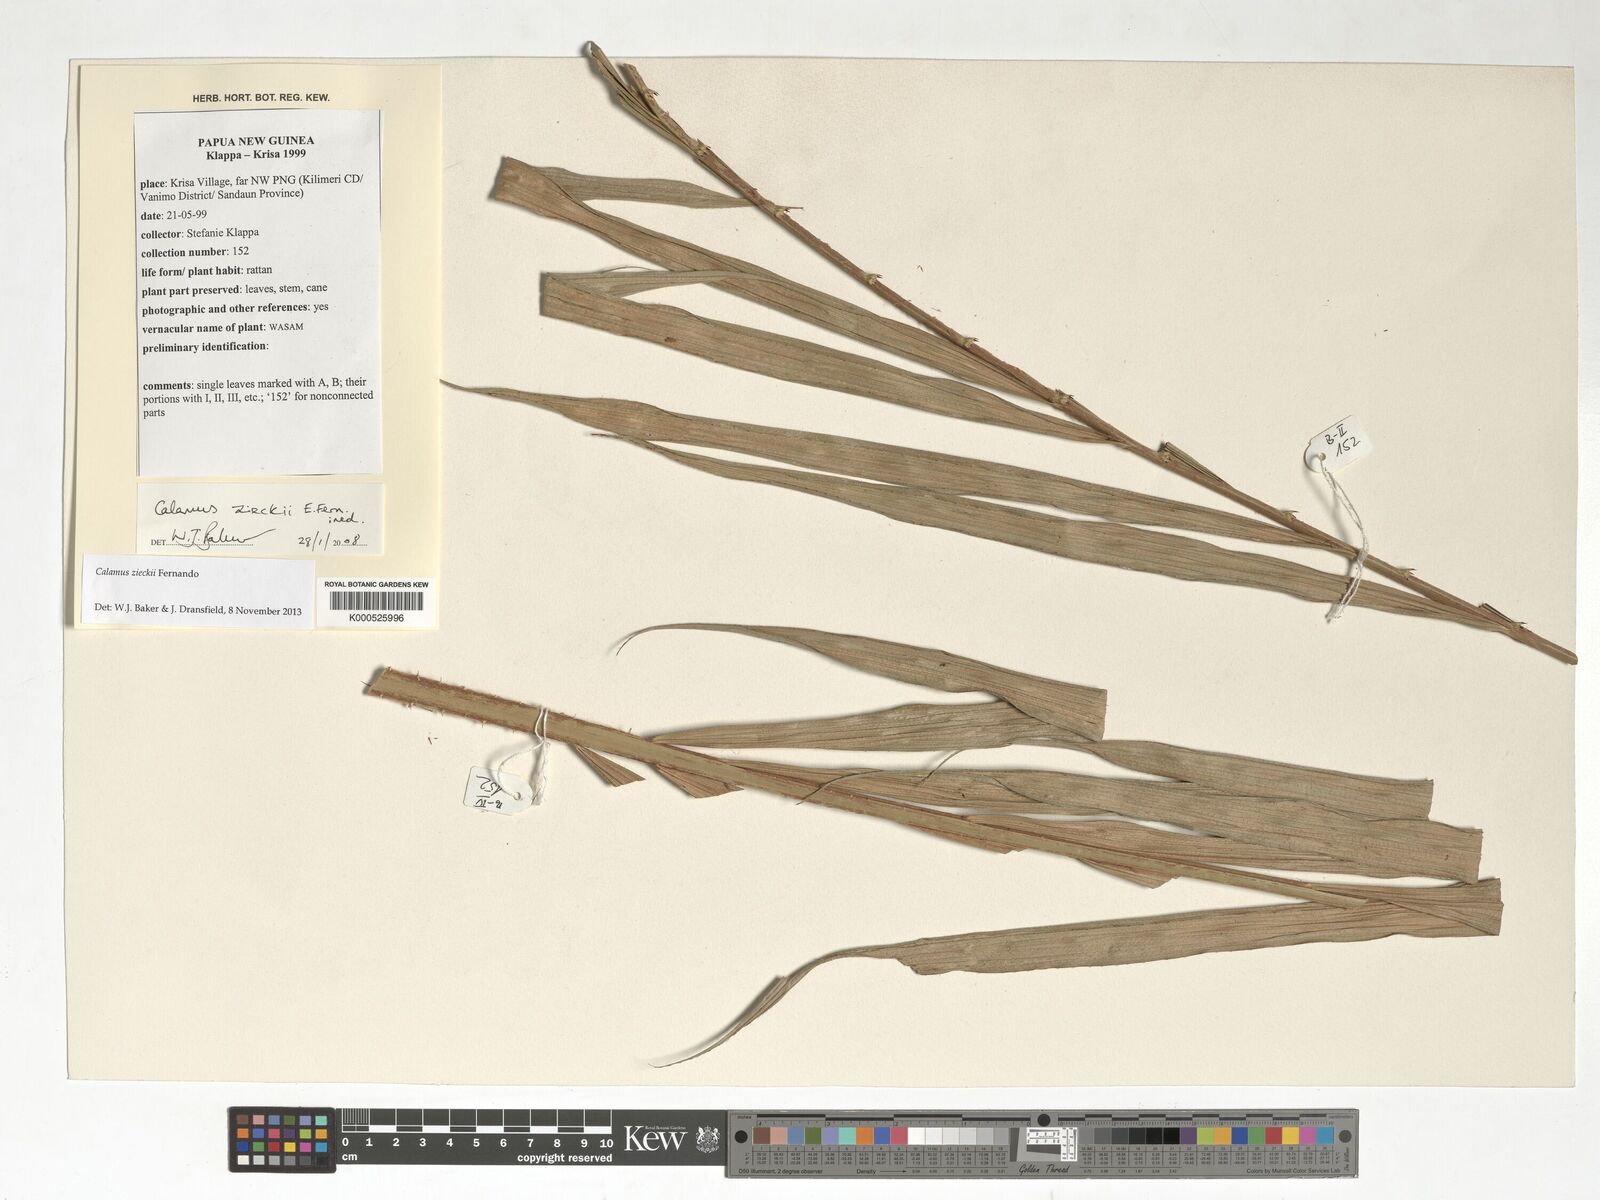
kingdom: Plantae
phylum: Tracheophyta
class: Liliopsida
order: Arecales
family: Arecaceae
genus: Calamus
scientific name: Calamus zieckii
